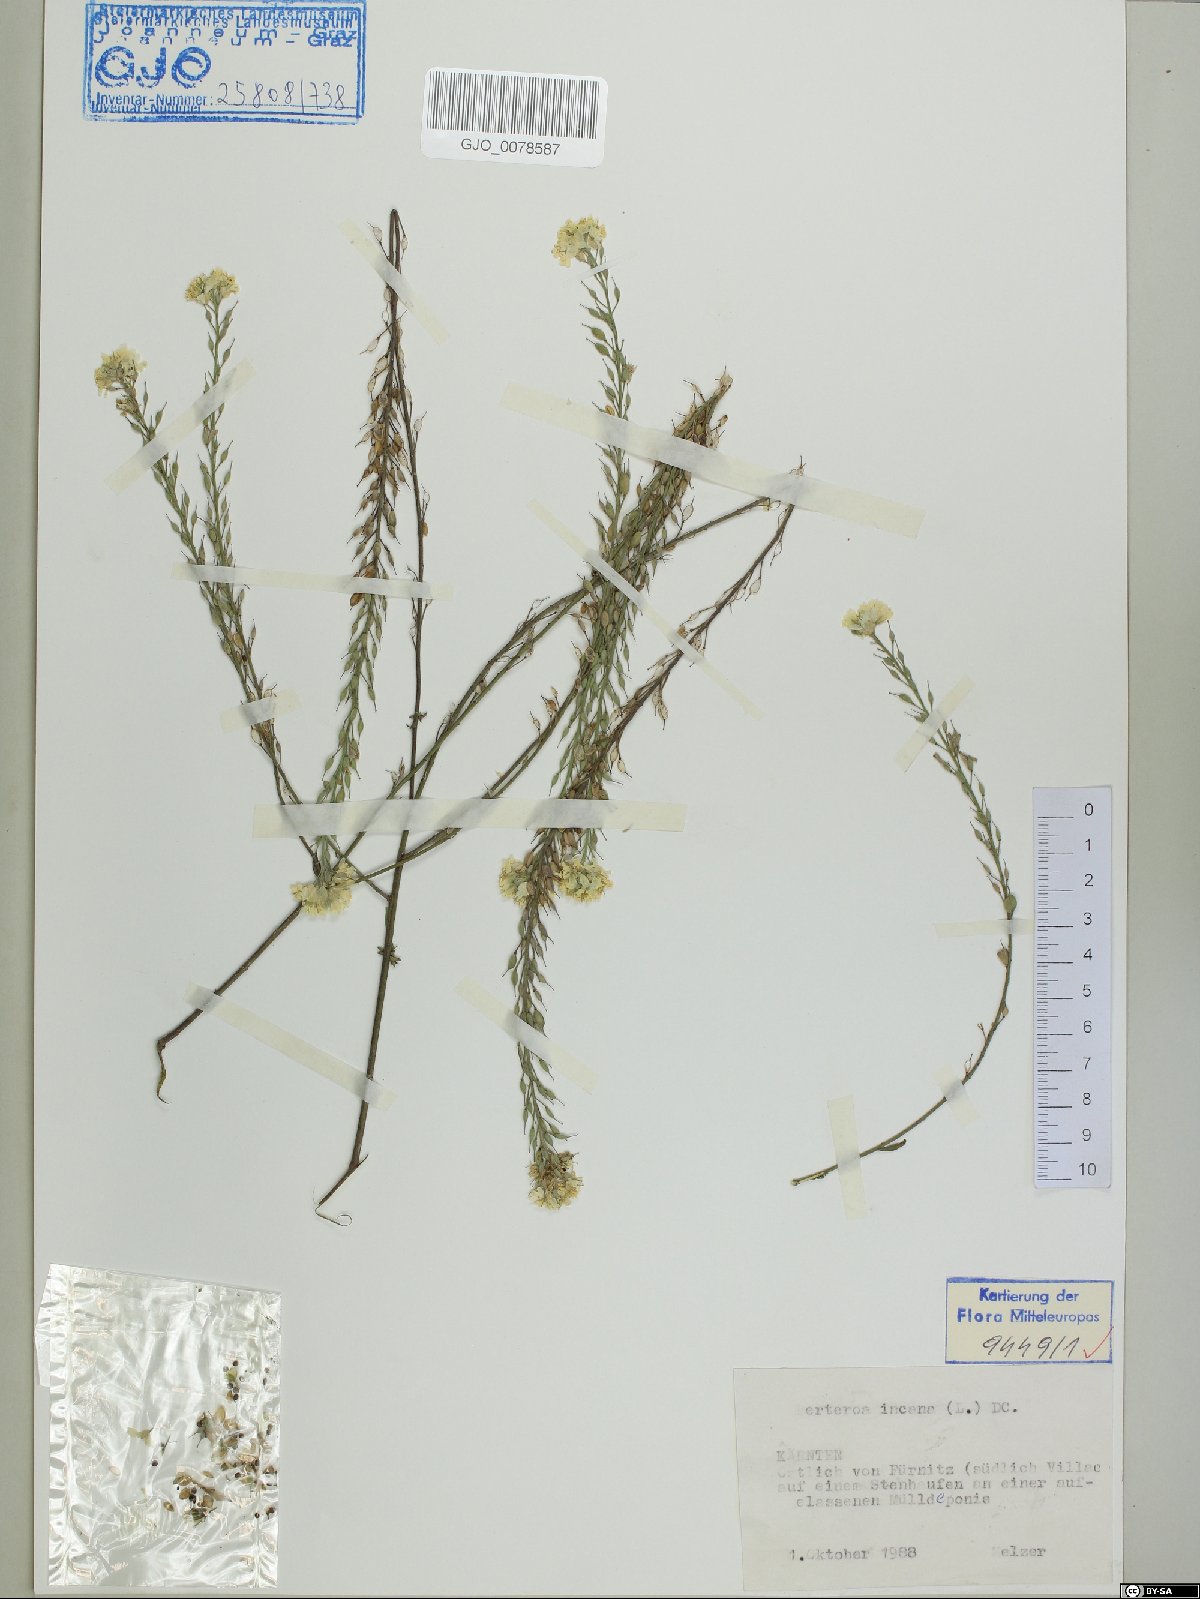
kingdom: Plantae
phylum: Tracheophyta
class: Magnoliopsida
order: Brassicales
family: Brassicaceae
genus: Berteroa
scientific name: Berteroa incana
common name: Hoary alison
